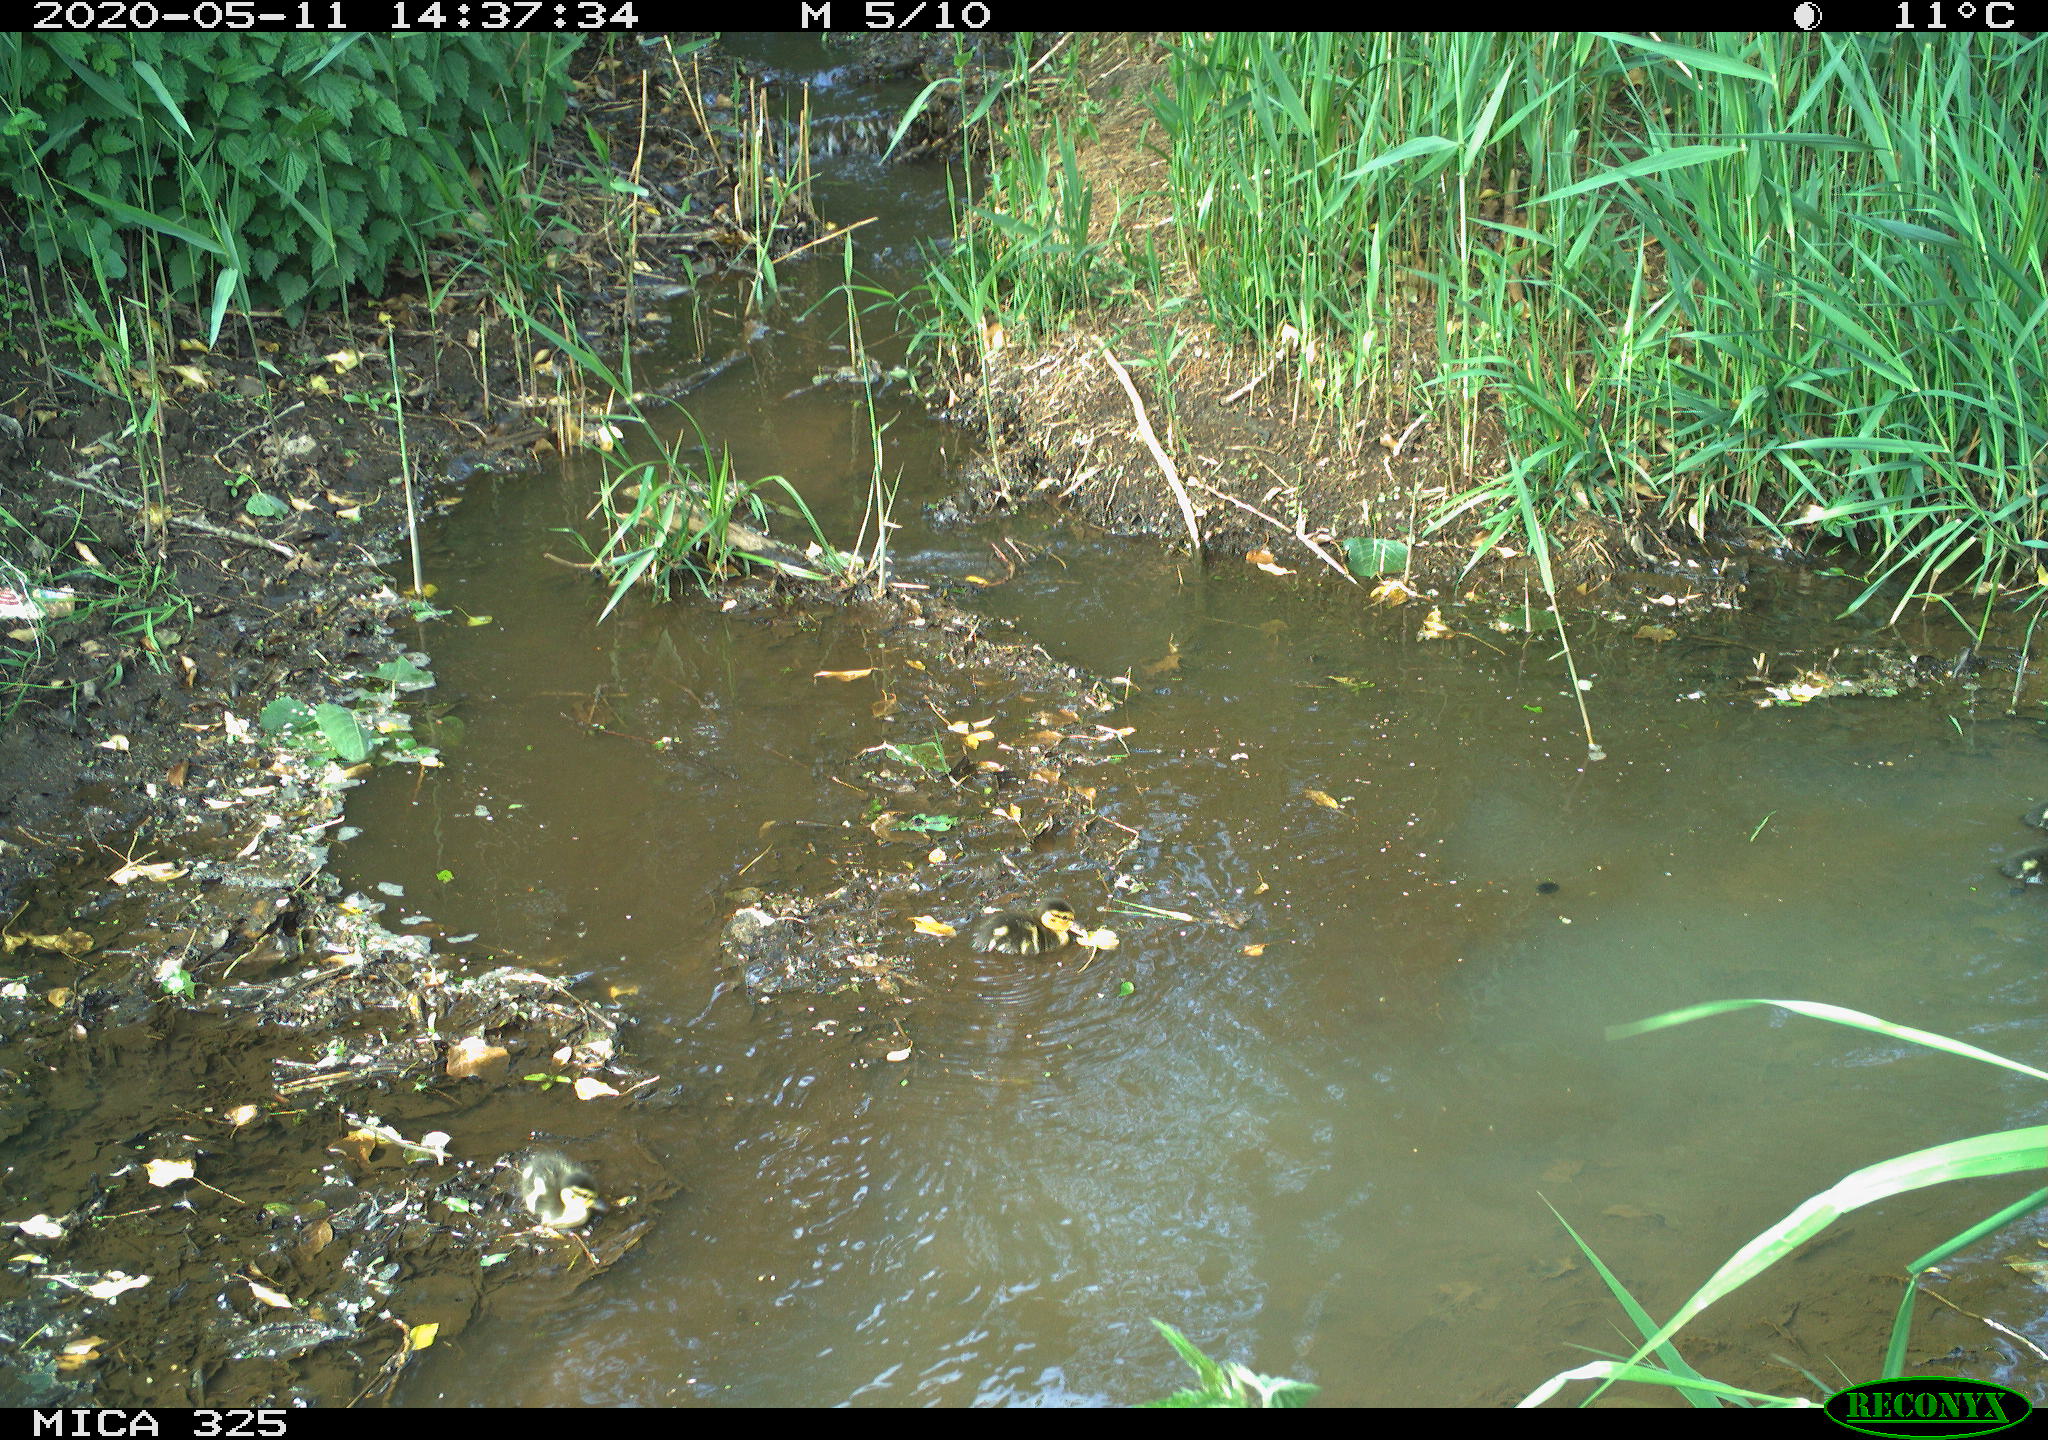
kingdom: Animalia
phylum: Chordata
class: Aves
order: Anseriformes
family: Anatidae
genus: Anas
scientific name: Anas platyrhynchos
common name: Mallard
